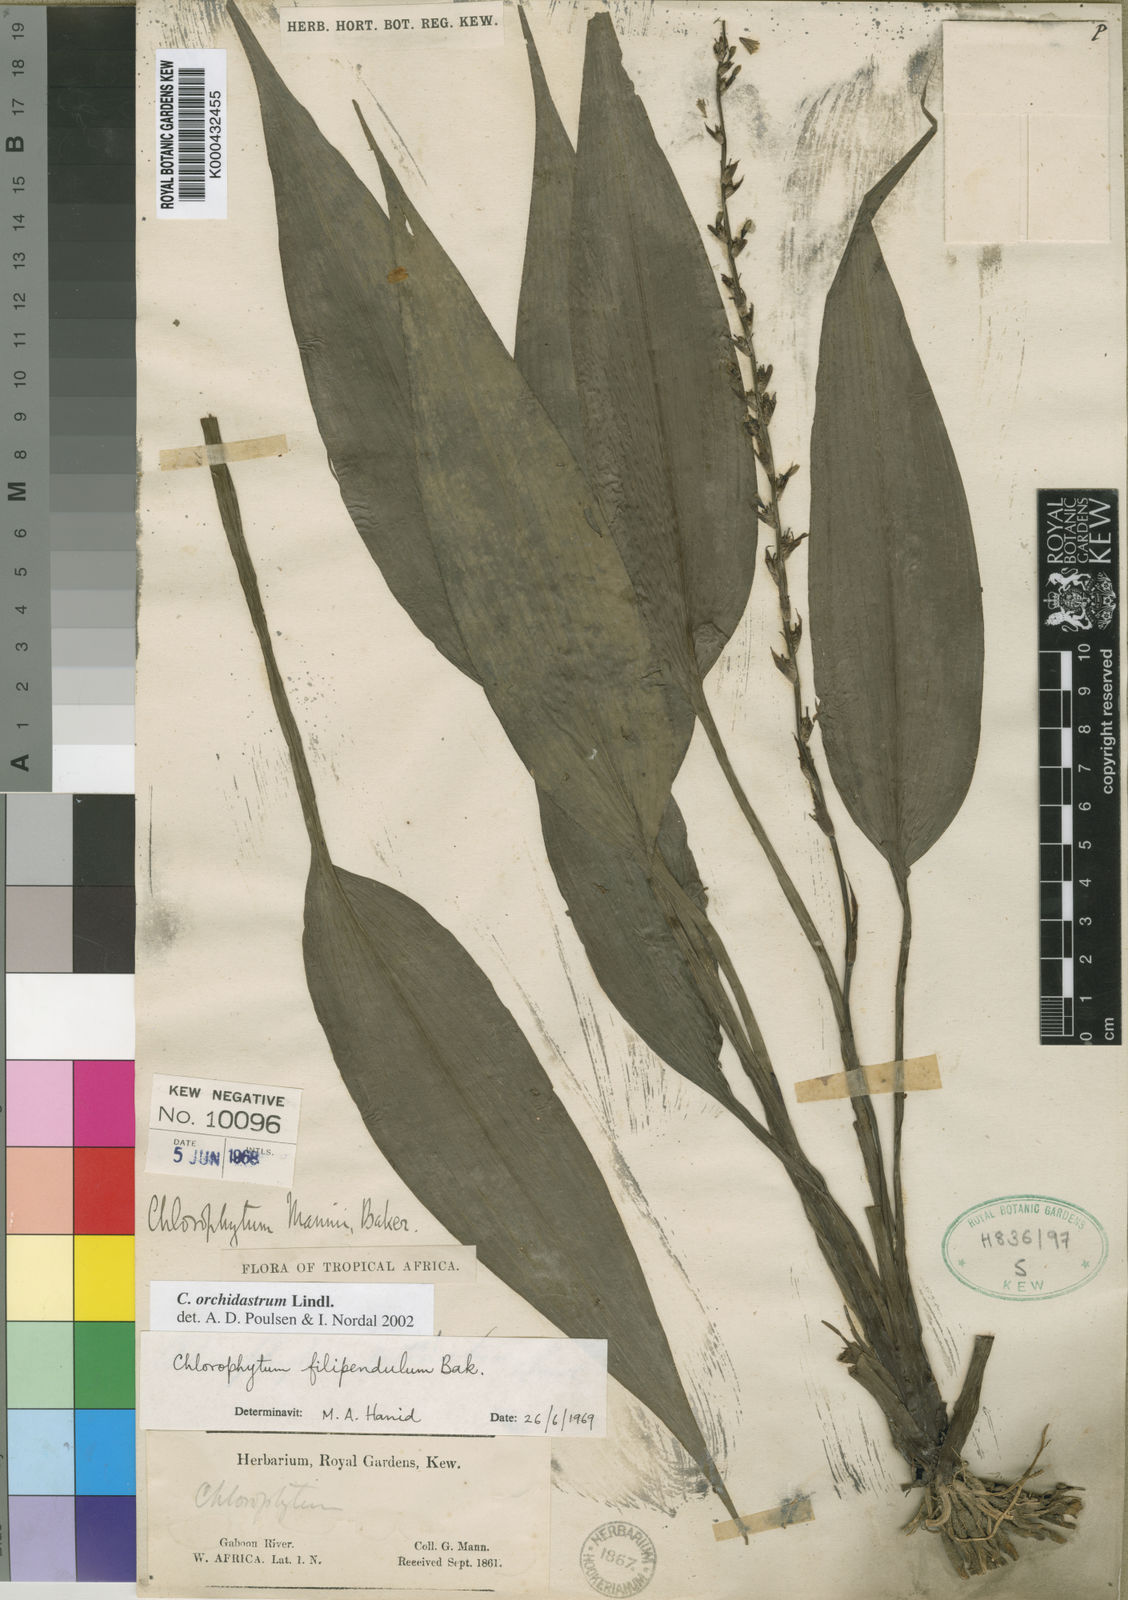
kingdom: Plantae
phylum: Tracheophyta
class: Liliopsida
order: Asparagales
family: Asparagaceae
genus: Chlorophytum
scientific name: Chlorophytum orchidastrum
